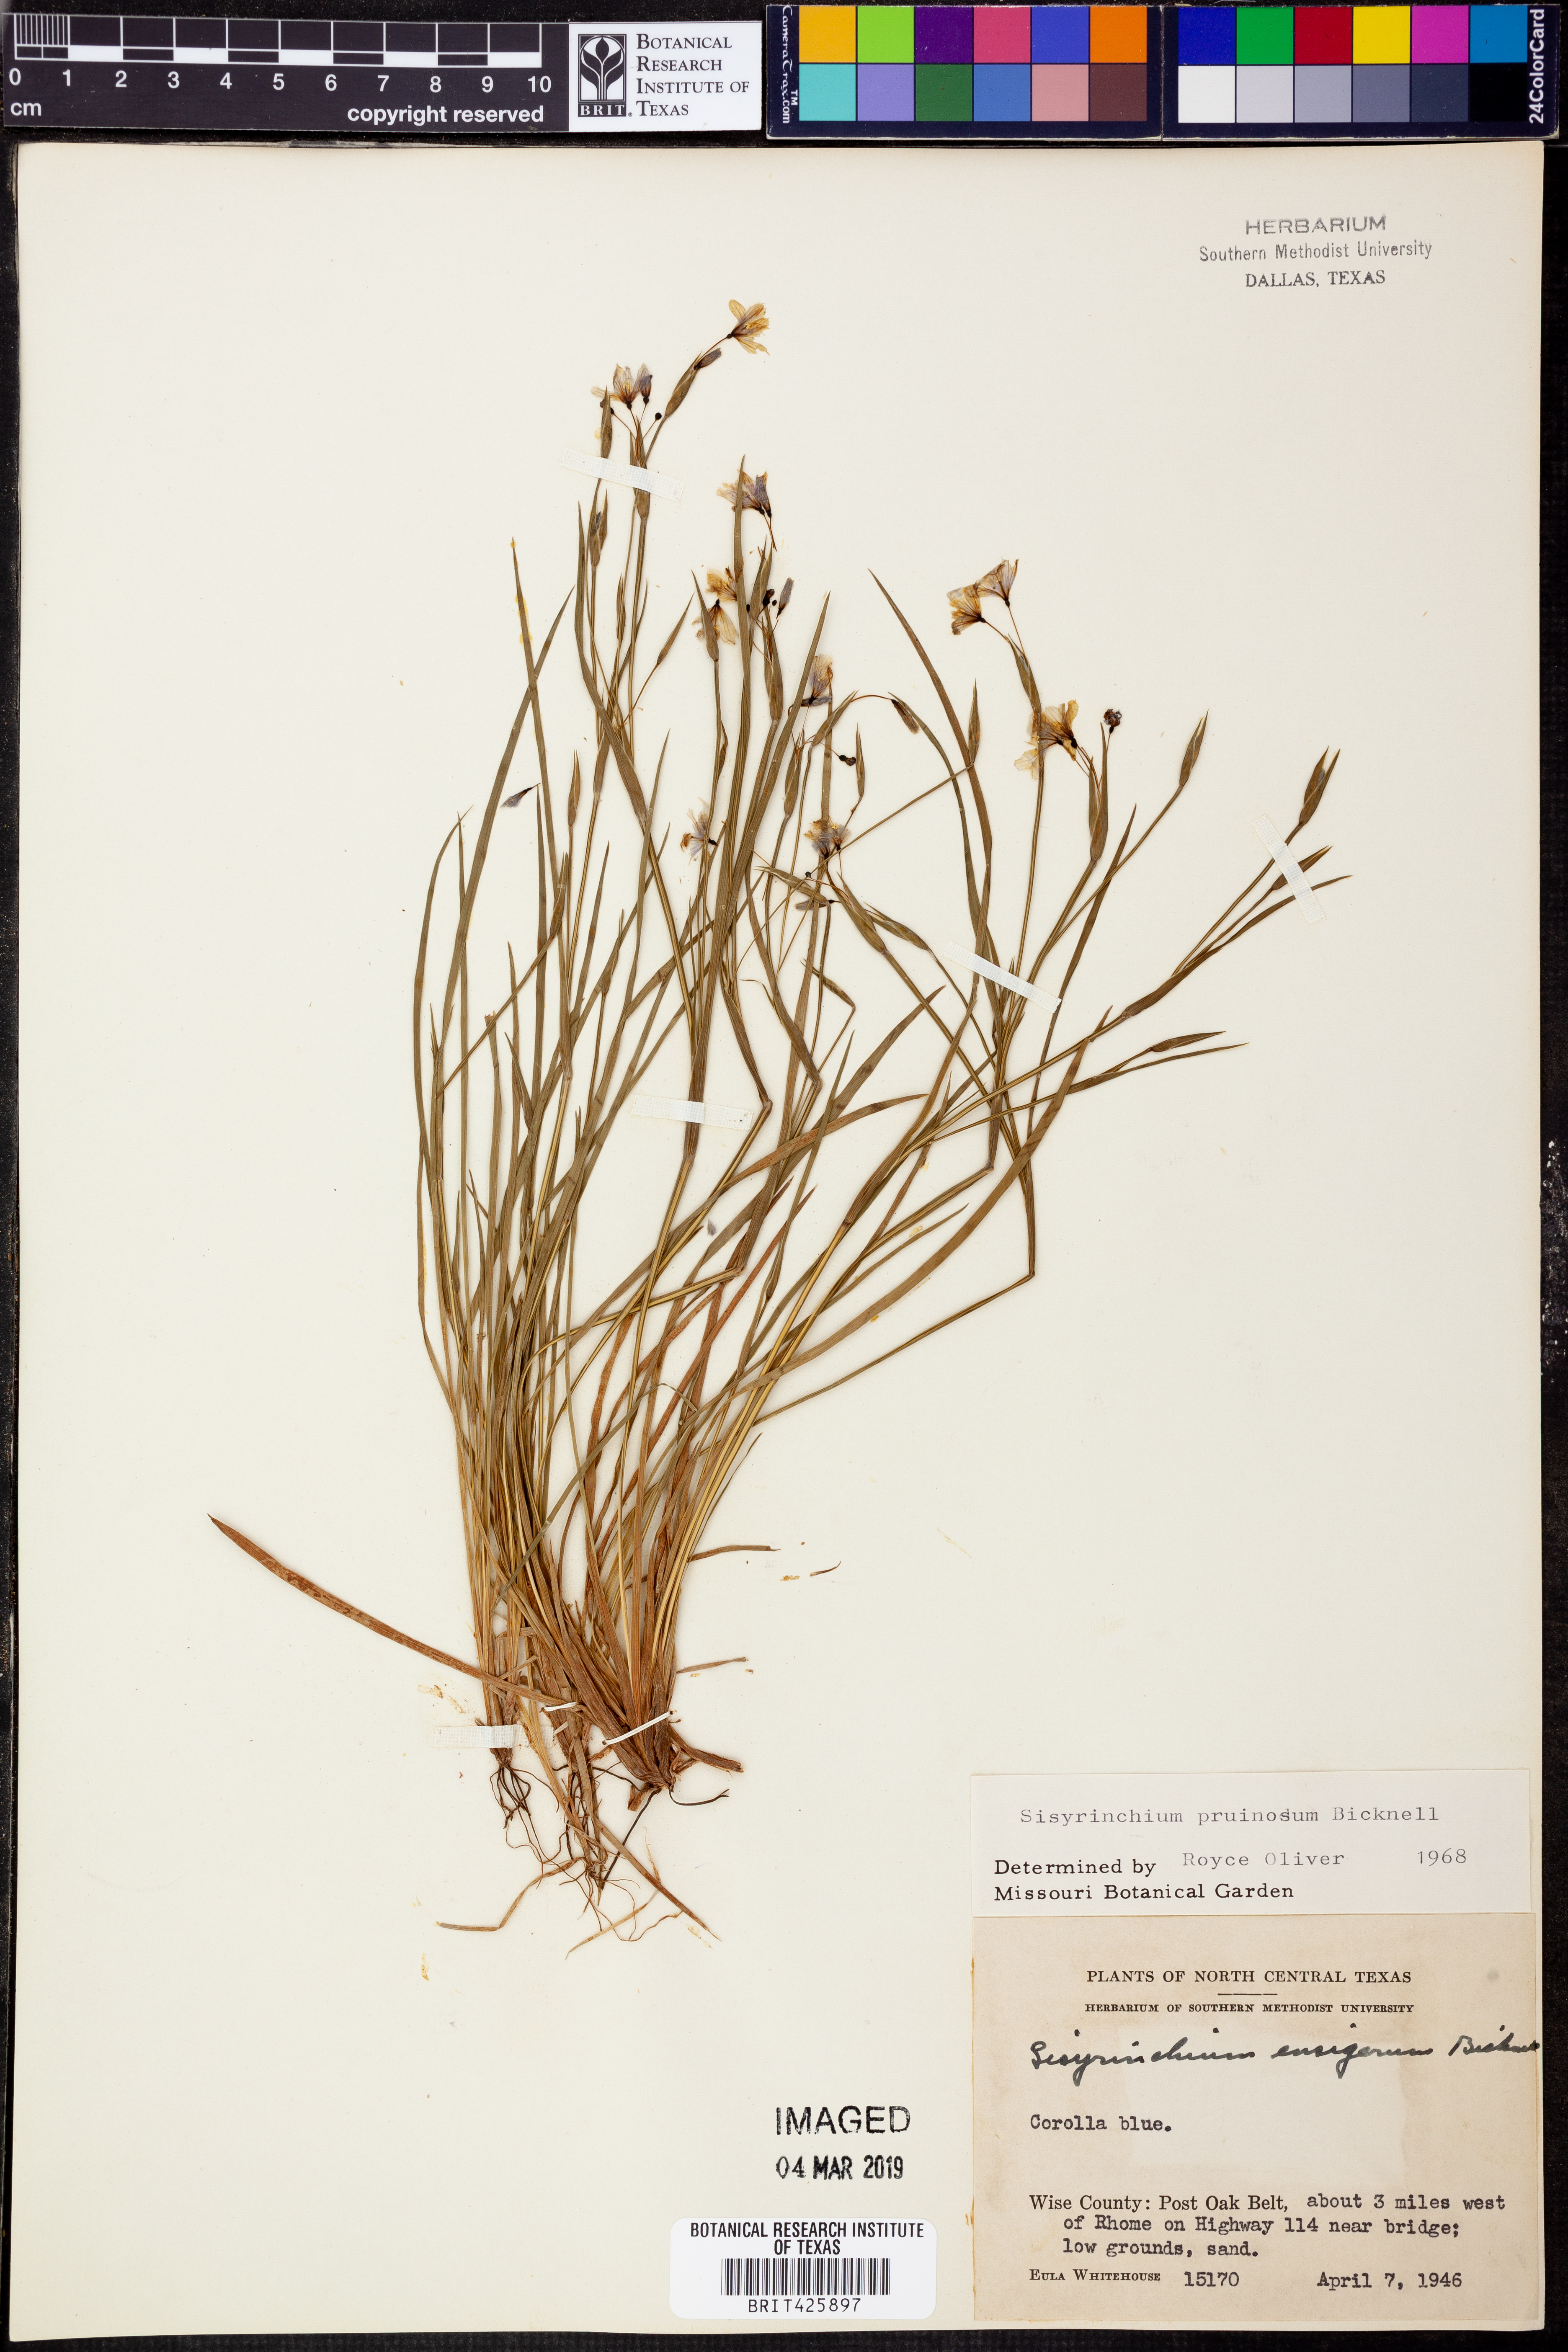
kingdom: Plantae
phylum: Tracheophyta
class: Liliopsida
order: Asparagales
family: Iridaceae
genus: Sisyrinchium
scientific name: Sisyrinchium pruinosum
